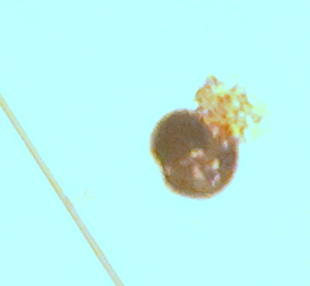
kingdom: Fungi
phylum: Ascomycota
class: Leotiomycetes
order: Helotiales
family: Erysiphaceae
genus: Podosphaera
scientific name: Podosphaera pannosa
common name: Rose mildew
